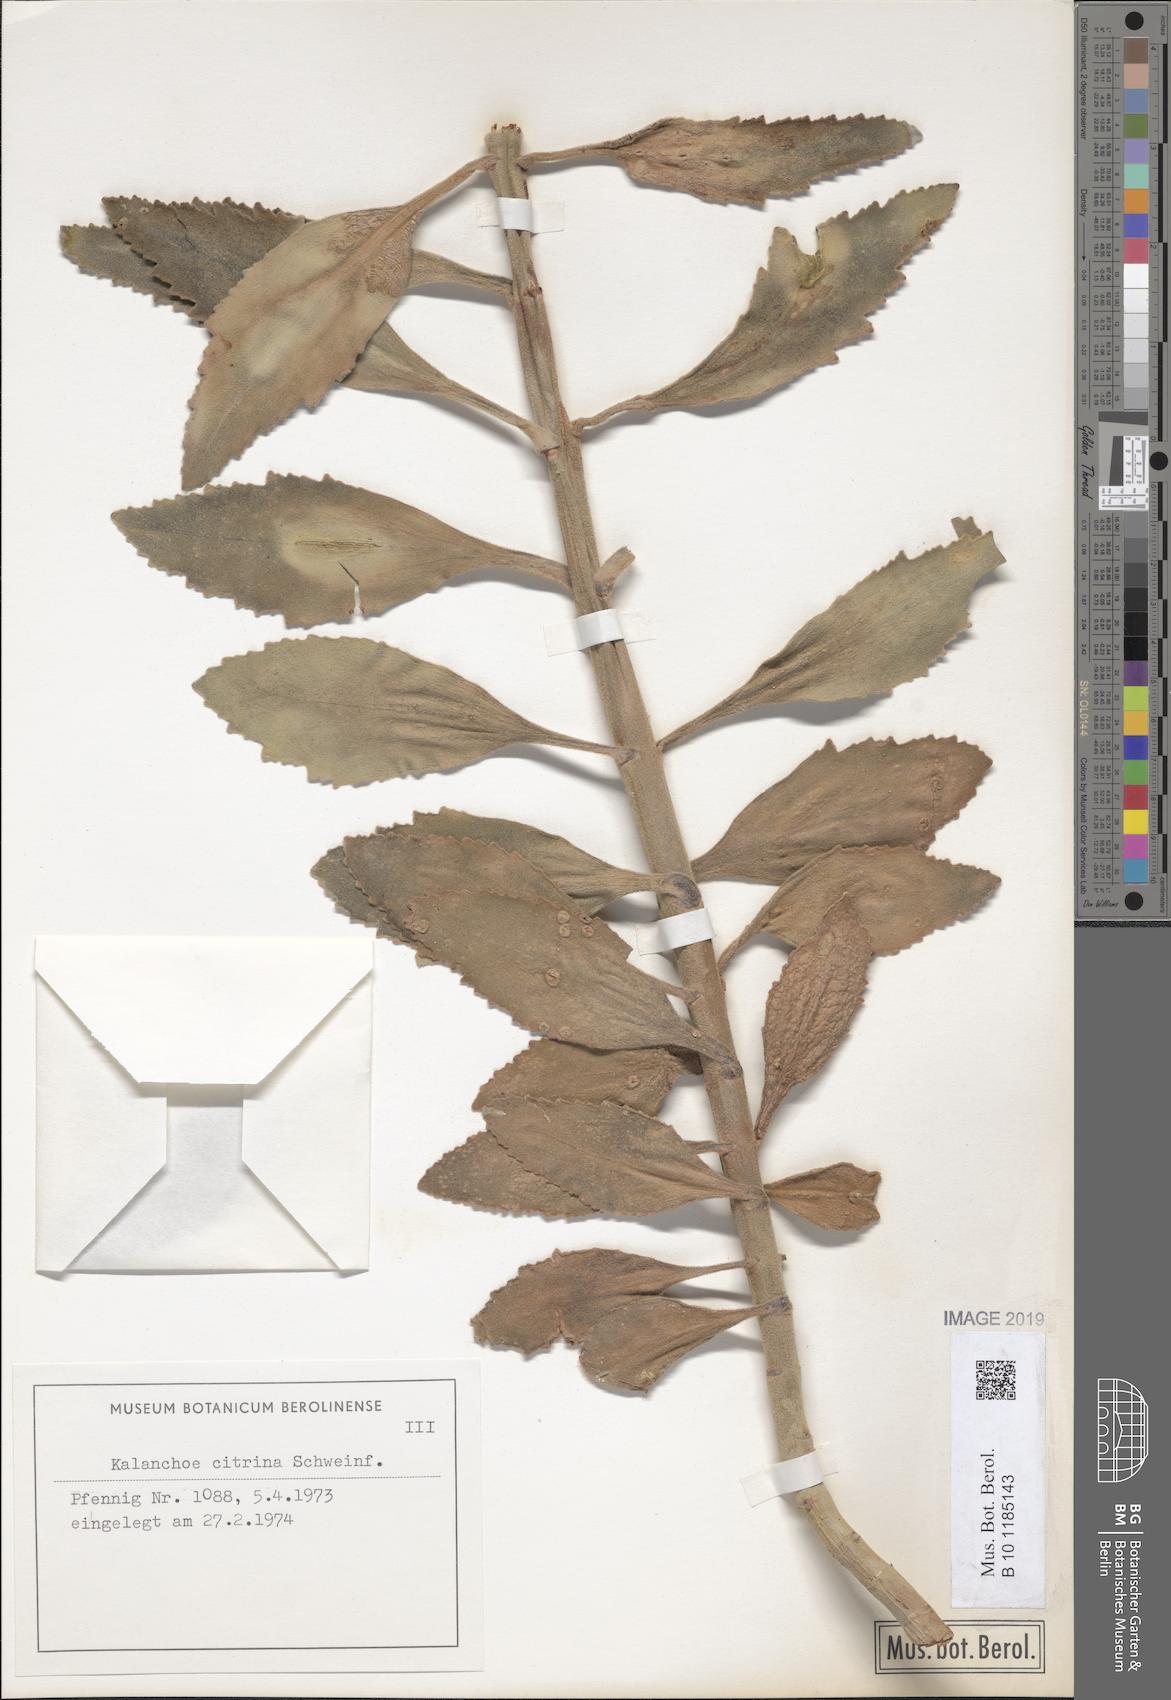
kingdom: Plantae
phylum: Tracheophyta
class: Magnoliopsida
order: Saxifragales
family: Crassulaceae
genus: Kalanchoe
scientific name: Kalanchoe citrina
